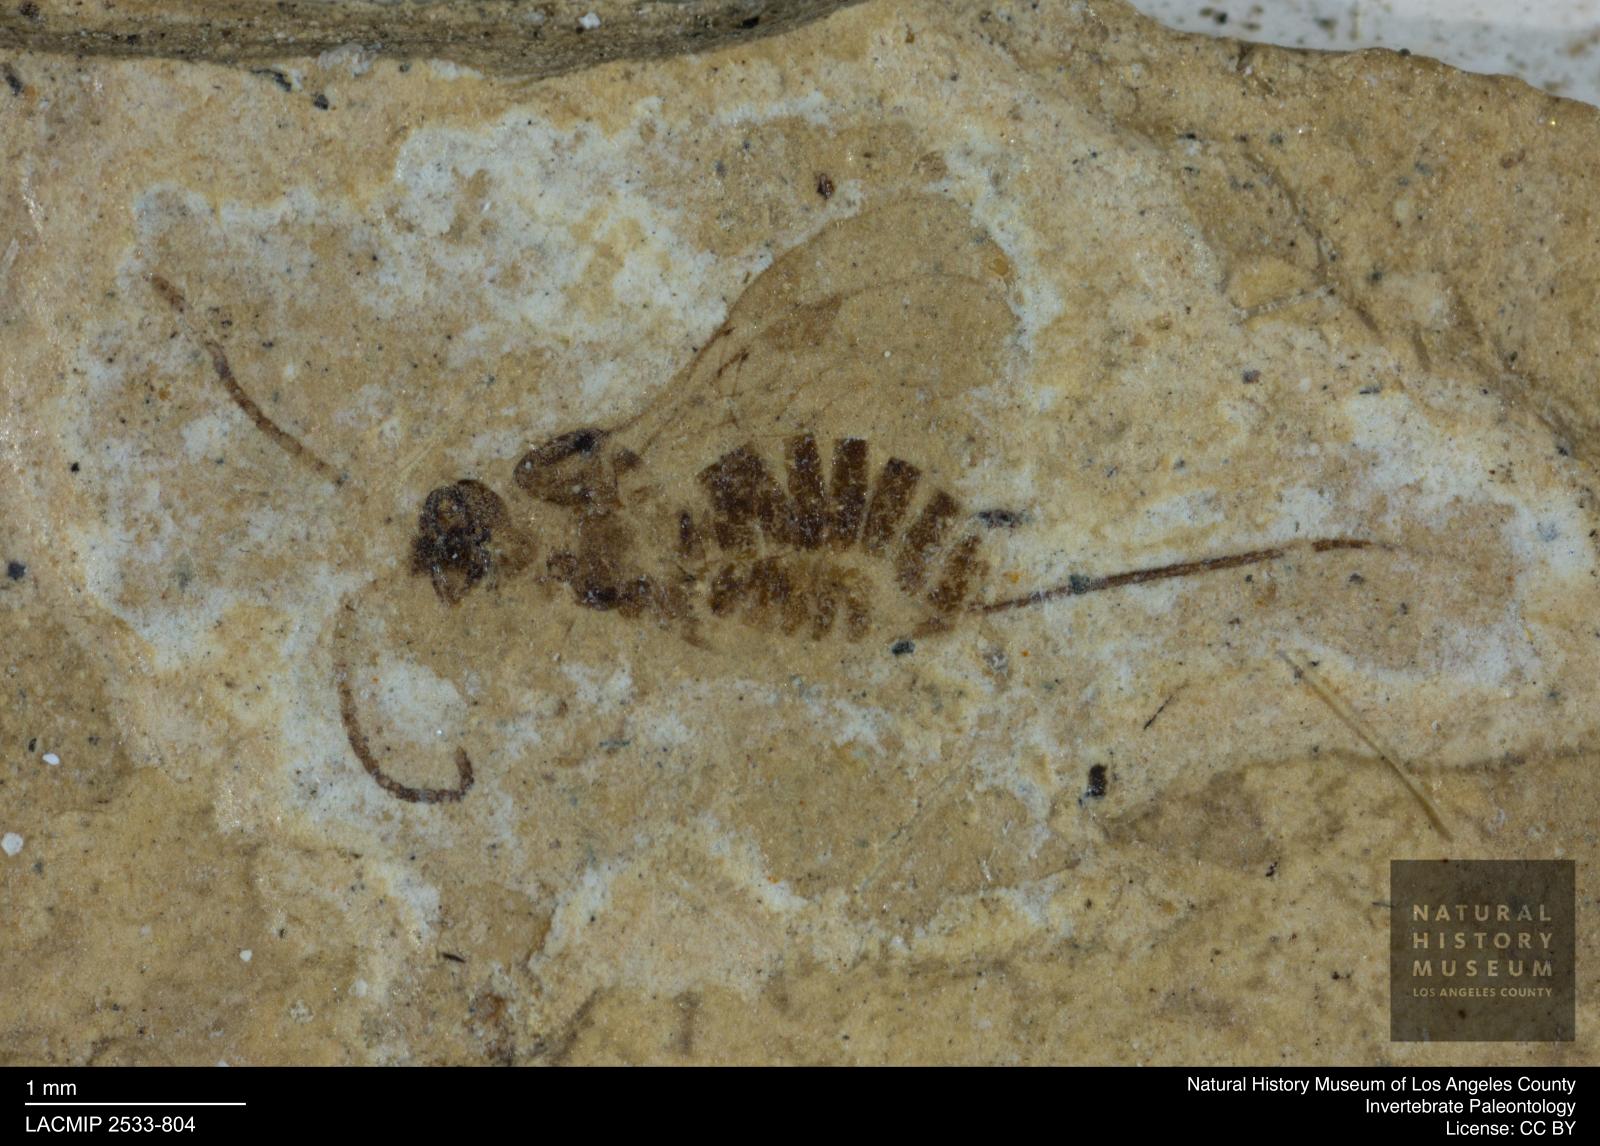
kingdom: Animalia
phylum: Arthropoda
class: Insecta
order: Hymenoptera
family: Braconidae
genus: Palaeoblacus
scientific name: Palaeoblacus aculeatus
